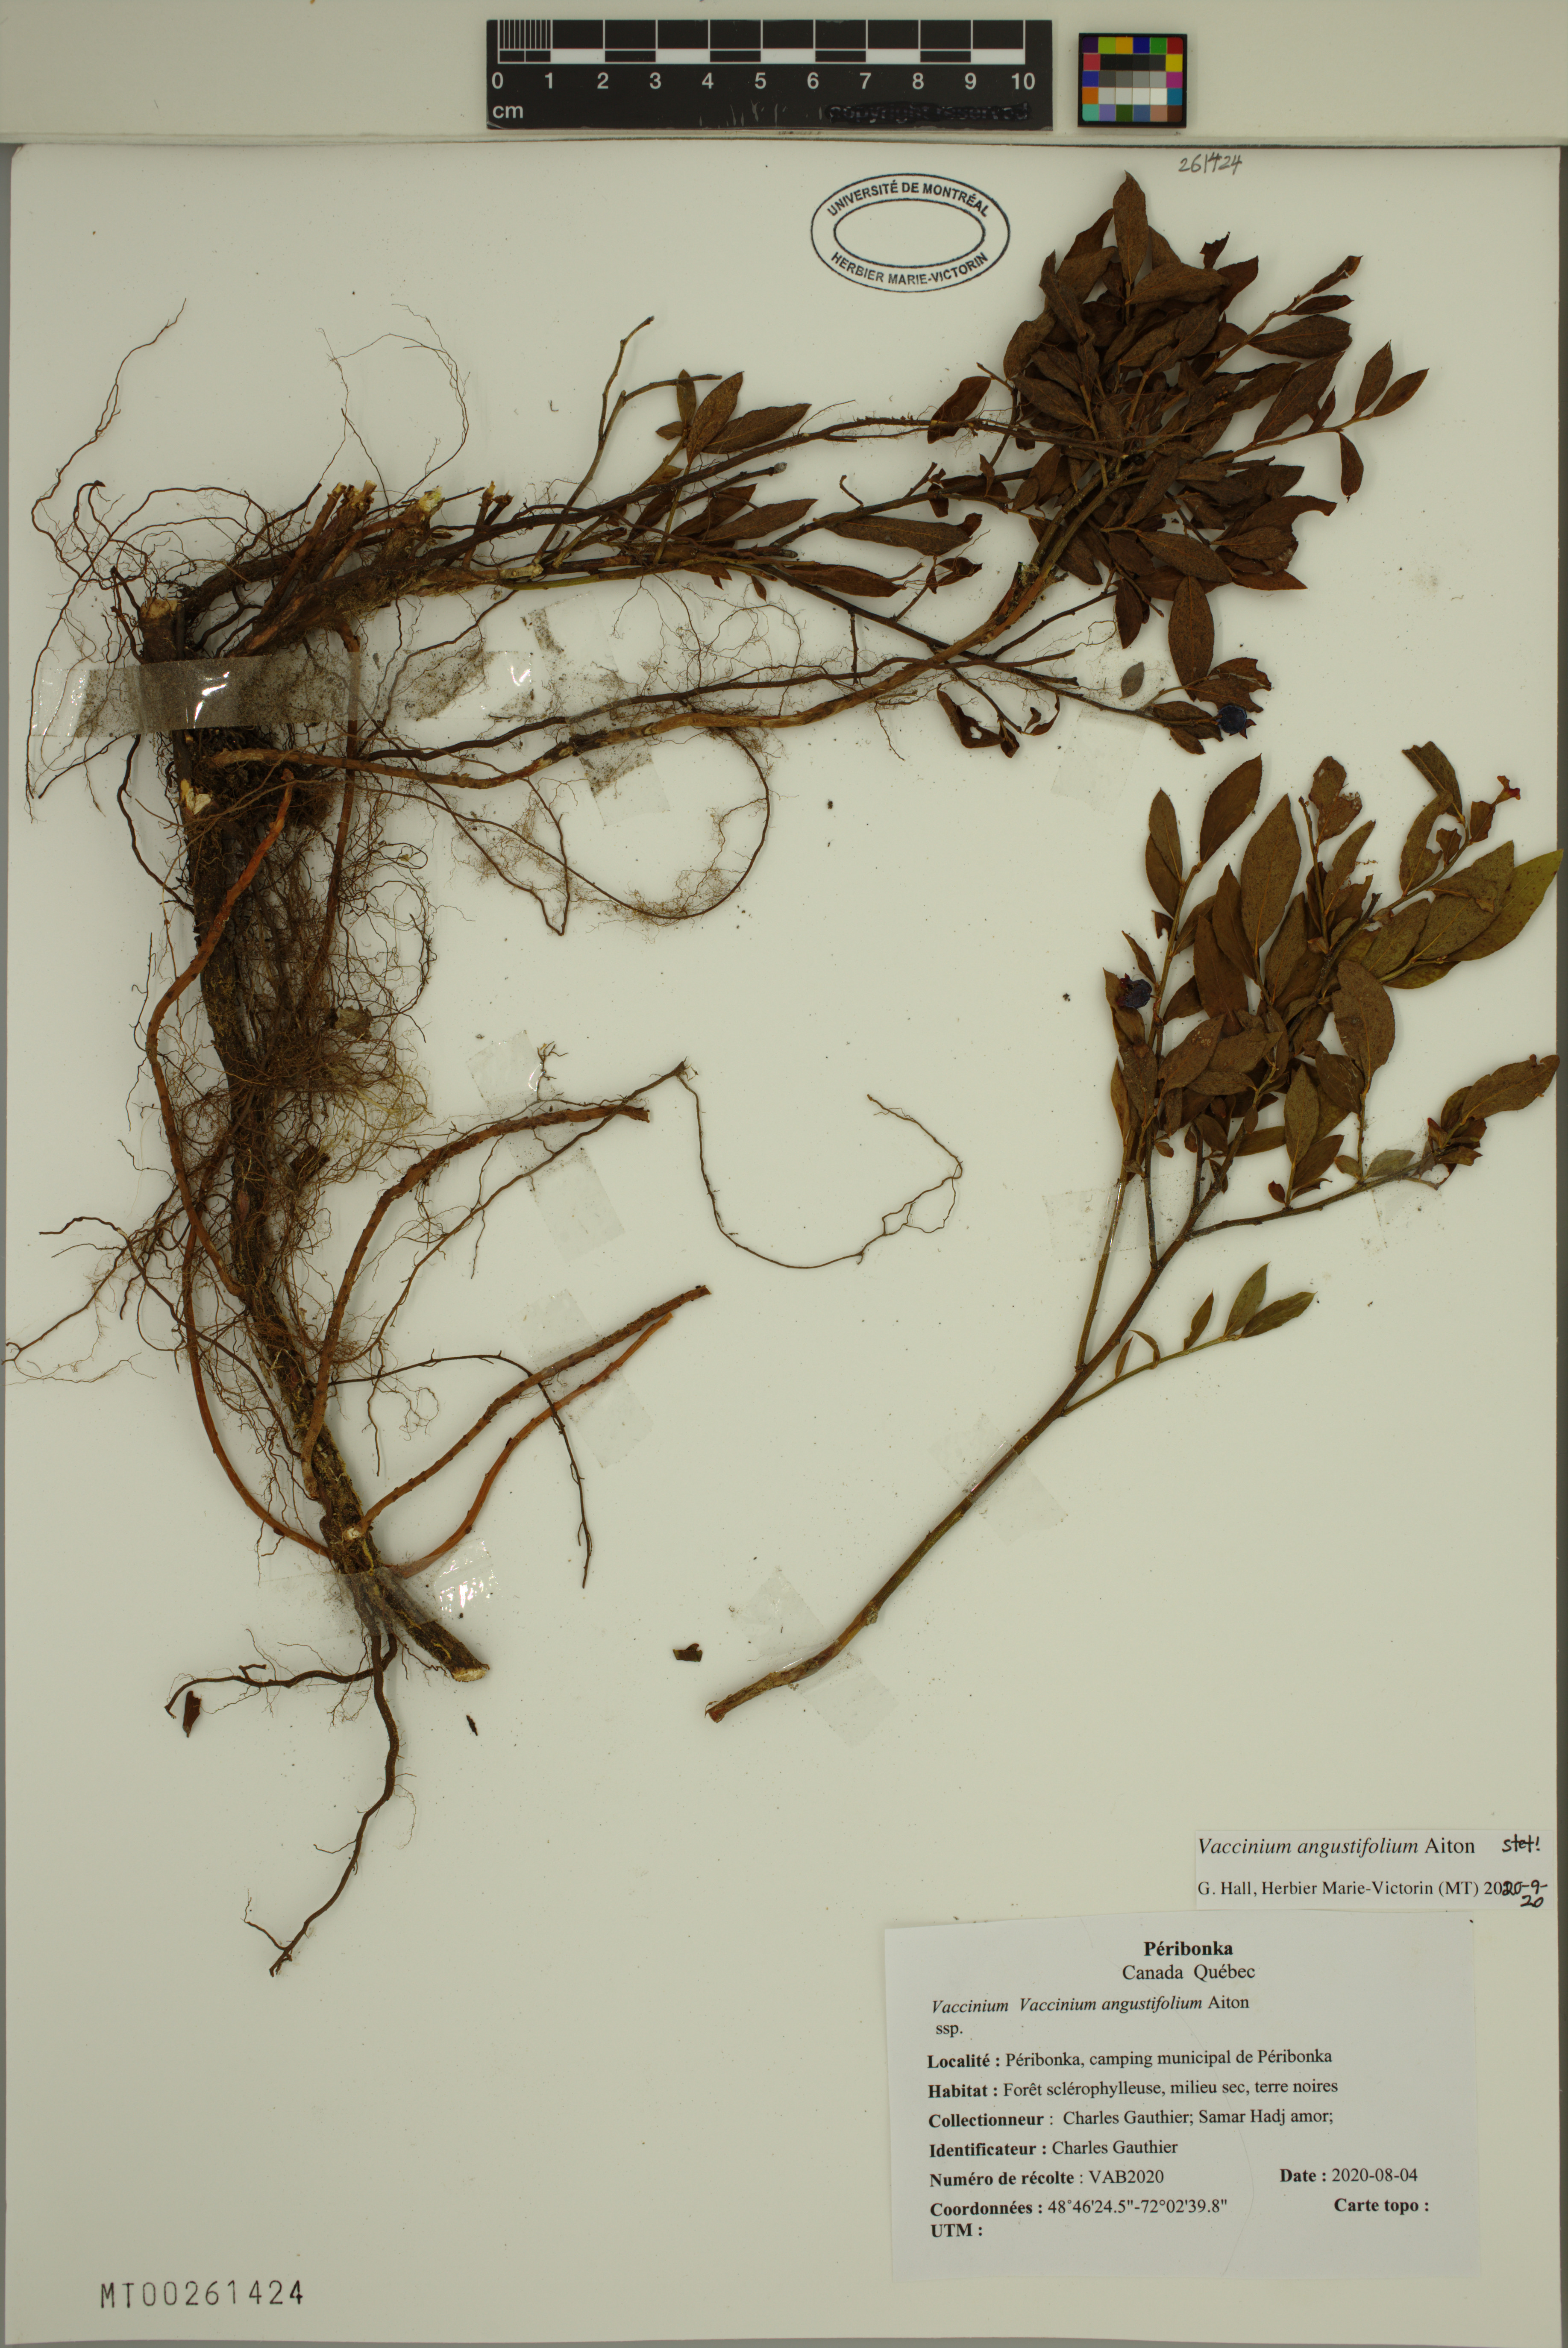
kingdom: Plantae
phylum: Tracheophyta
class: Magnoliopsida
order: Ericales
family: Ericaceae
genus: Vaccinium
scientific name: Vaccinium angustifolium
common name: Early lowbush blueberry
